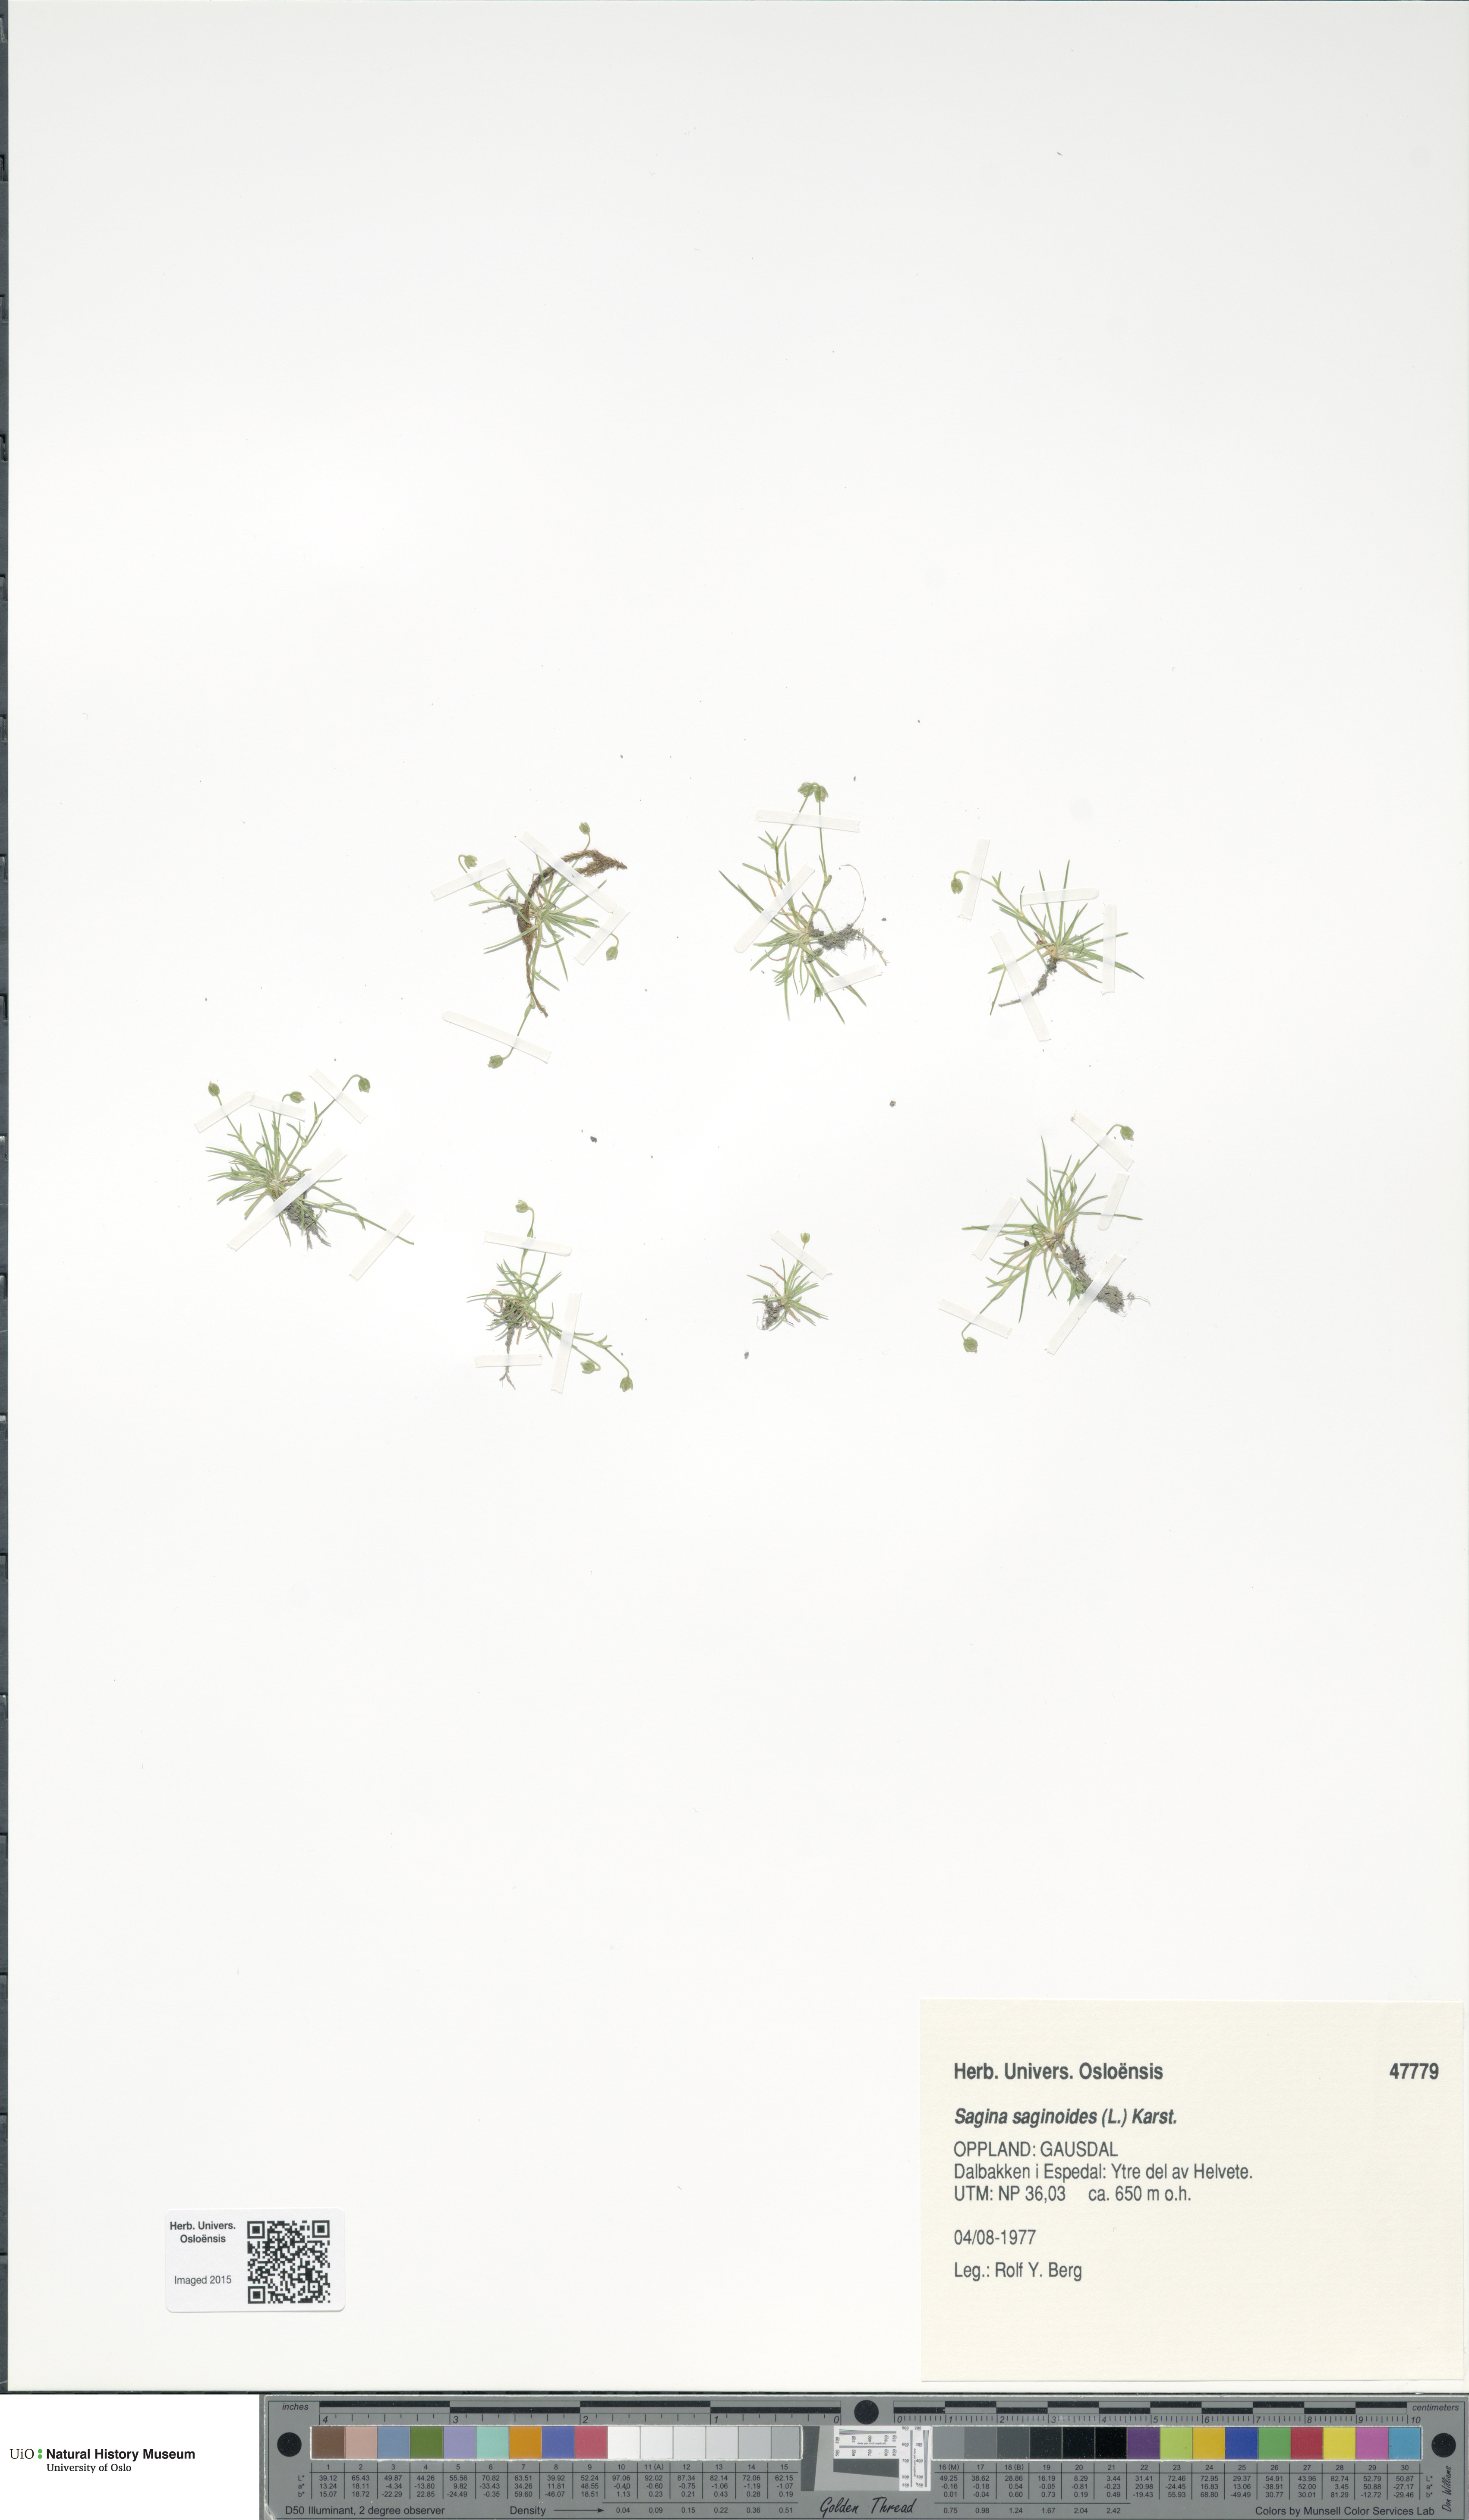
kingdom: Plantae
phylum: Tracheophyta
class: Magnoliopsida
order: Caryophyllales
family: Caryophyllaceae
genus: Sagina
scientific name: Sagina saginoides
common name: Alpine pearlwort
